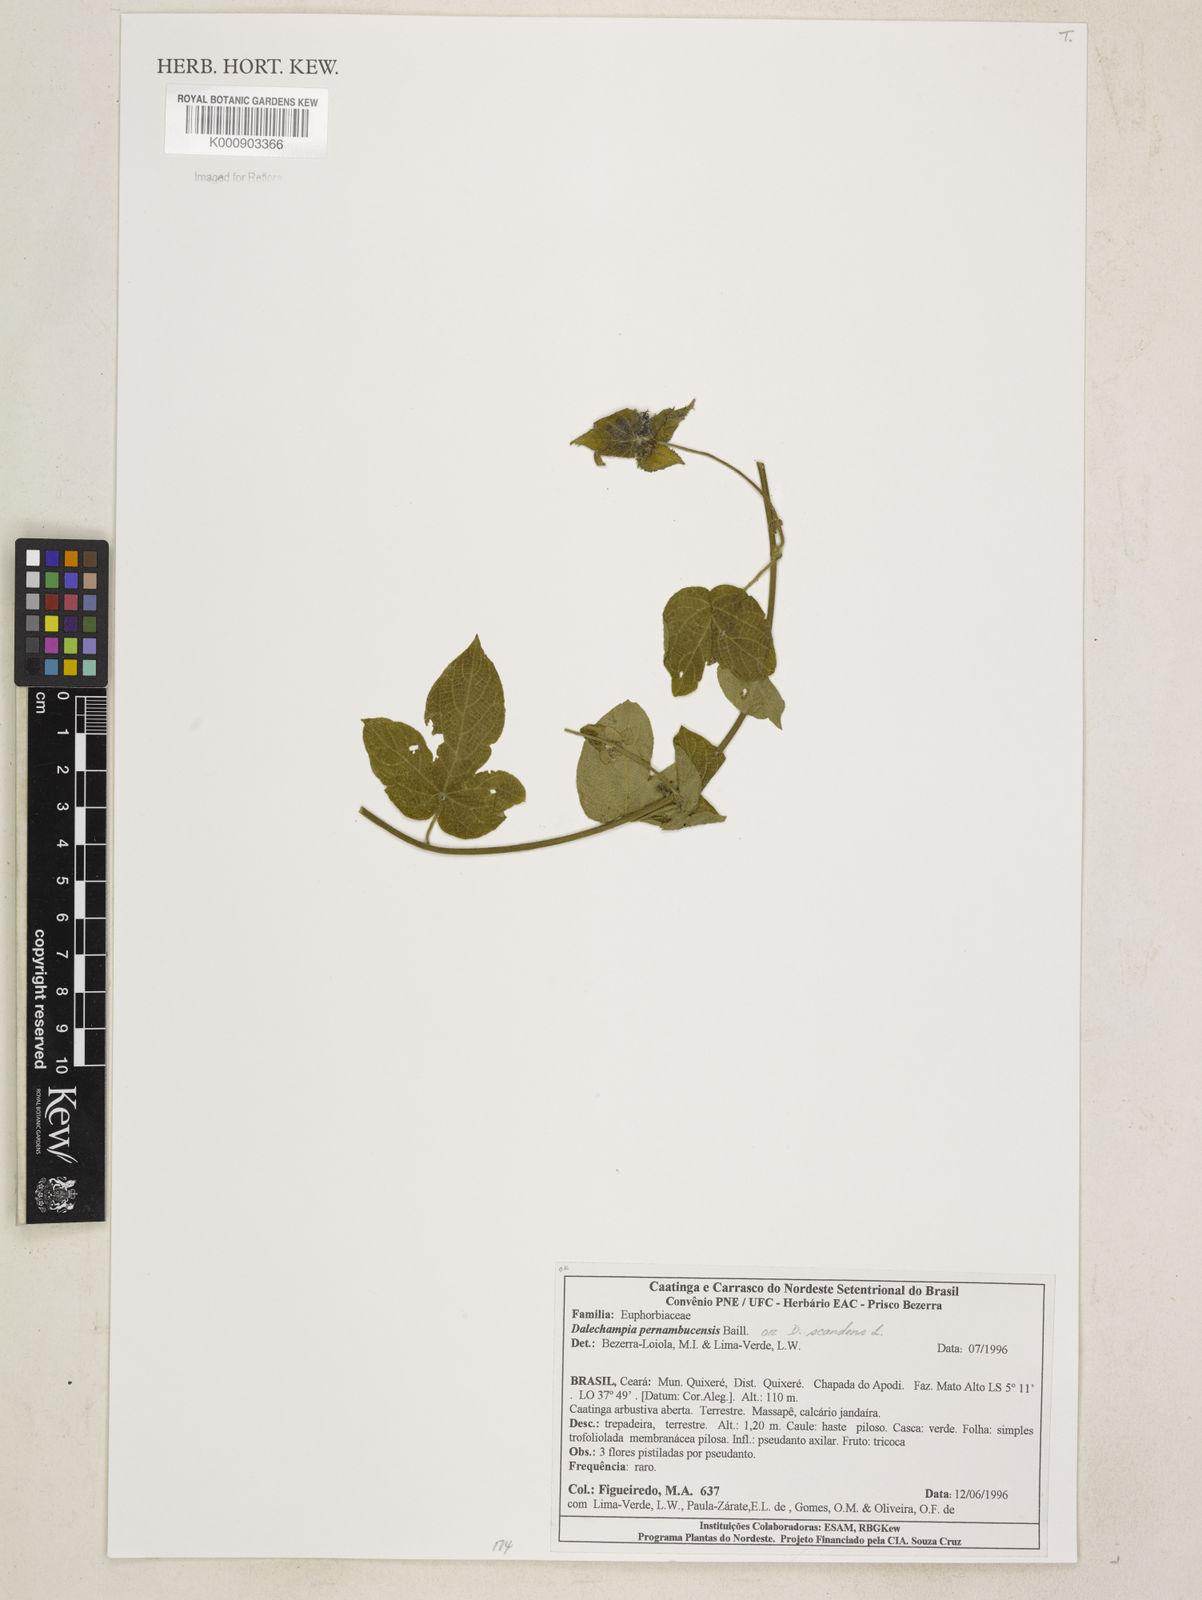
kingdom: Plantae
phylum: Tracheophyta
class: Magnoliopsida
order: Malpighiales
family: Euphorbiaceae
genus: Dalechampia
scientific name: Dalechampia pernambucensis
